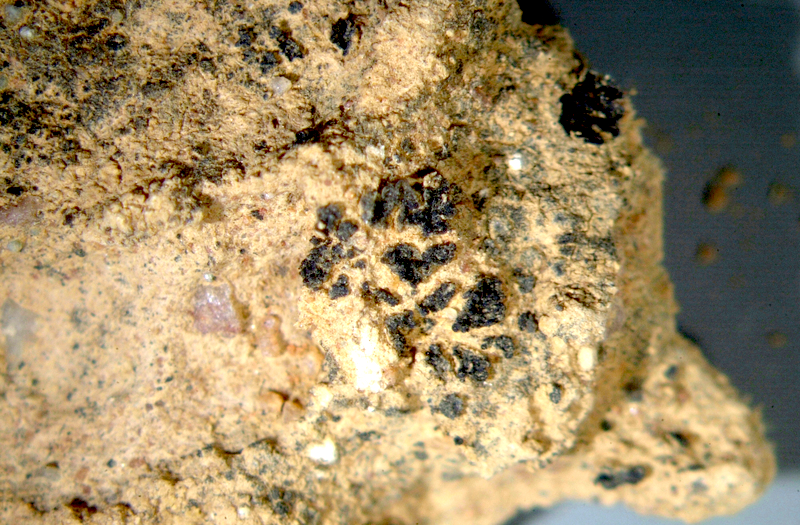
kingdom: Fungi
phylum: Ascomycota
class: Lecanoromycetes
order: Lecanorales
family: Ramalinaceae
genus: Bibbya
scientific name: Bibbya lutosa
